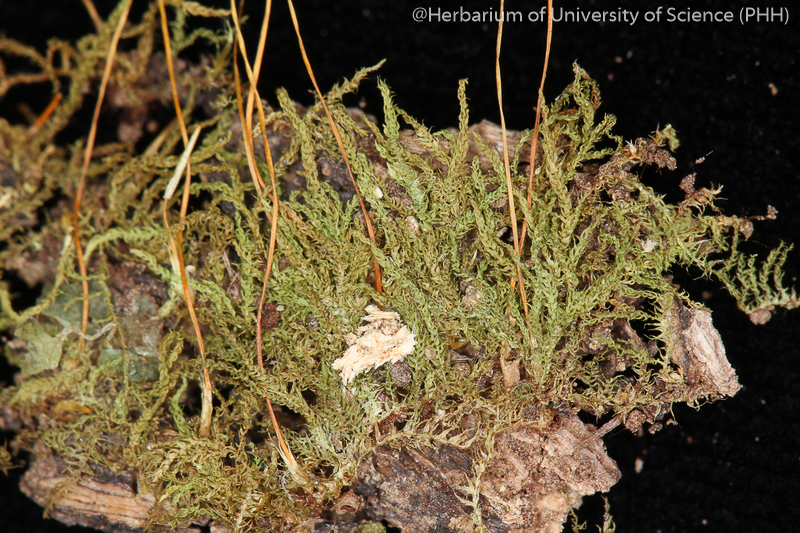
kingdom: Plantae
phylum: Bryophyta
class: Bryopsida
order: Hypnales
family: Leskeaceae
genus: Haplocladium
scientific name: Haplocladium microphyllum
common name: Tiny-leaved haplocladium
